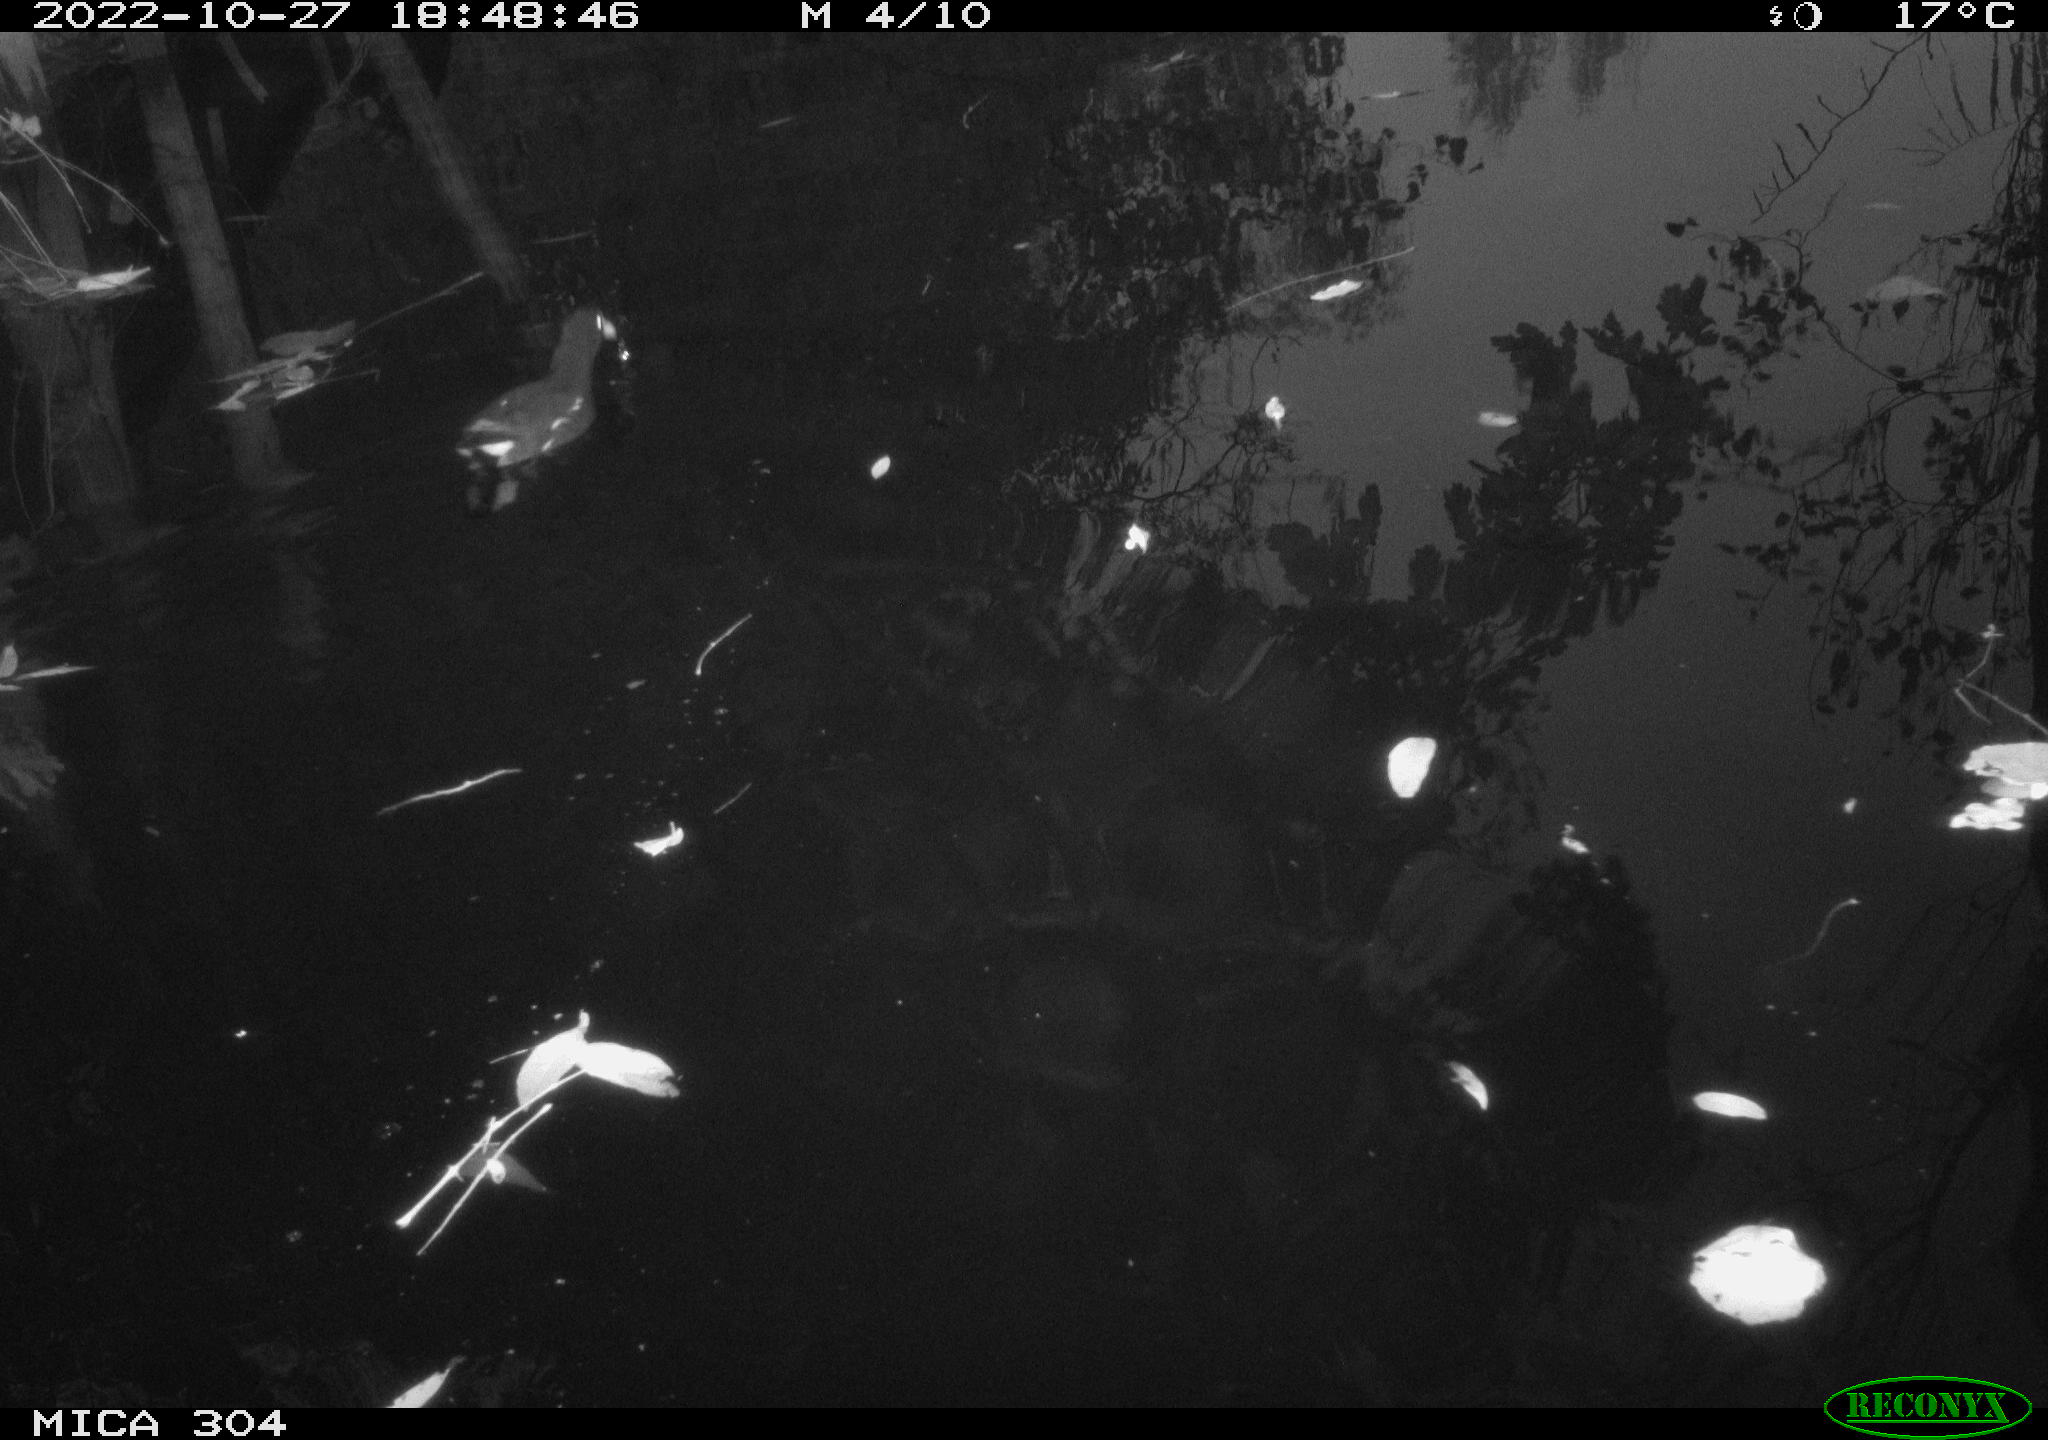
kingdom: Animalia
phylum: Chordata
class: Aves
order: Gruiformes
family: Rallidae
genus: Gallinula
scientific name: Gallinula chloropus
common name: Common moorhen
